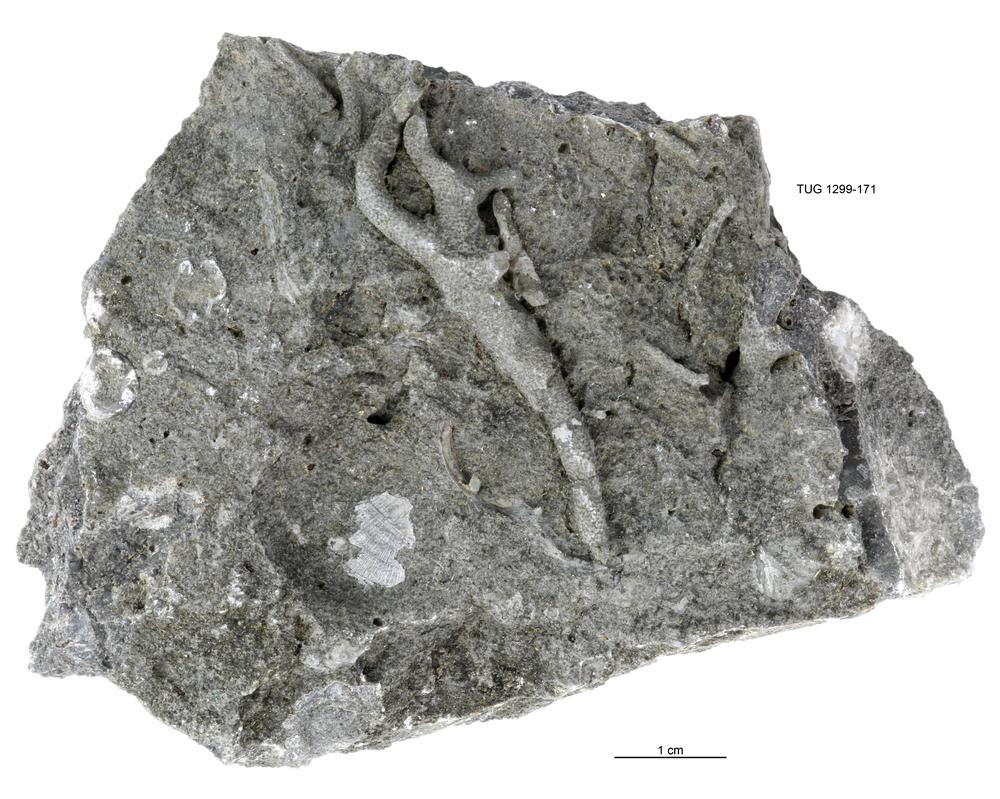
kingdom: Animalia
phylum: Bryozoa
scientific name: Bryozoa
